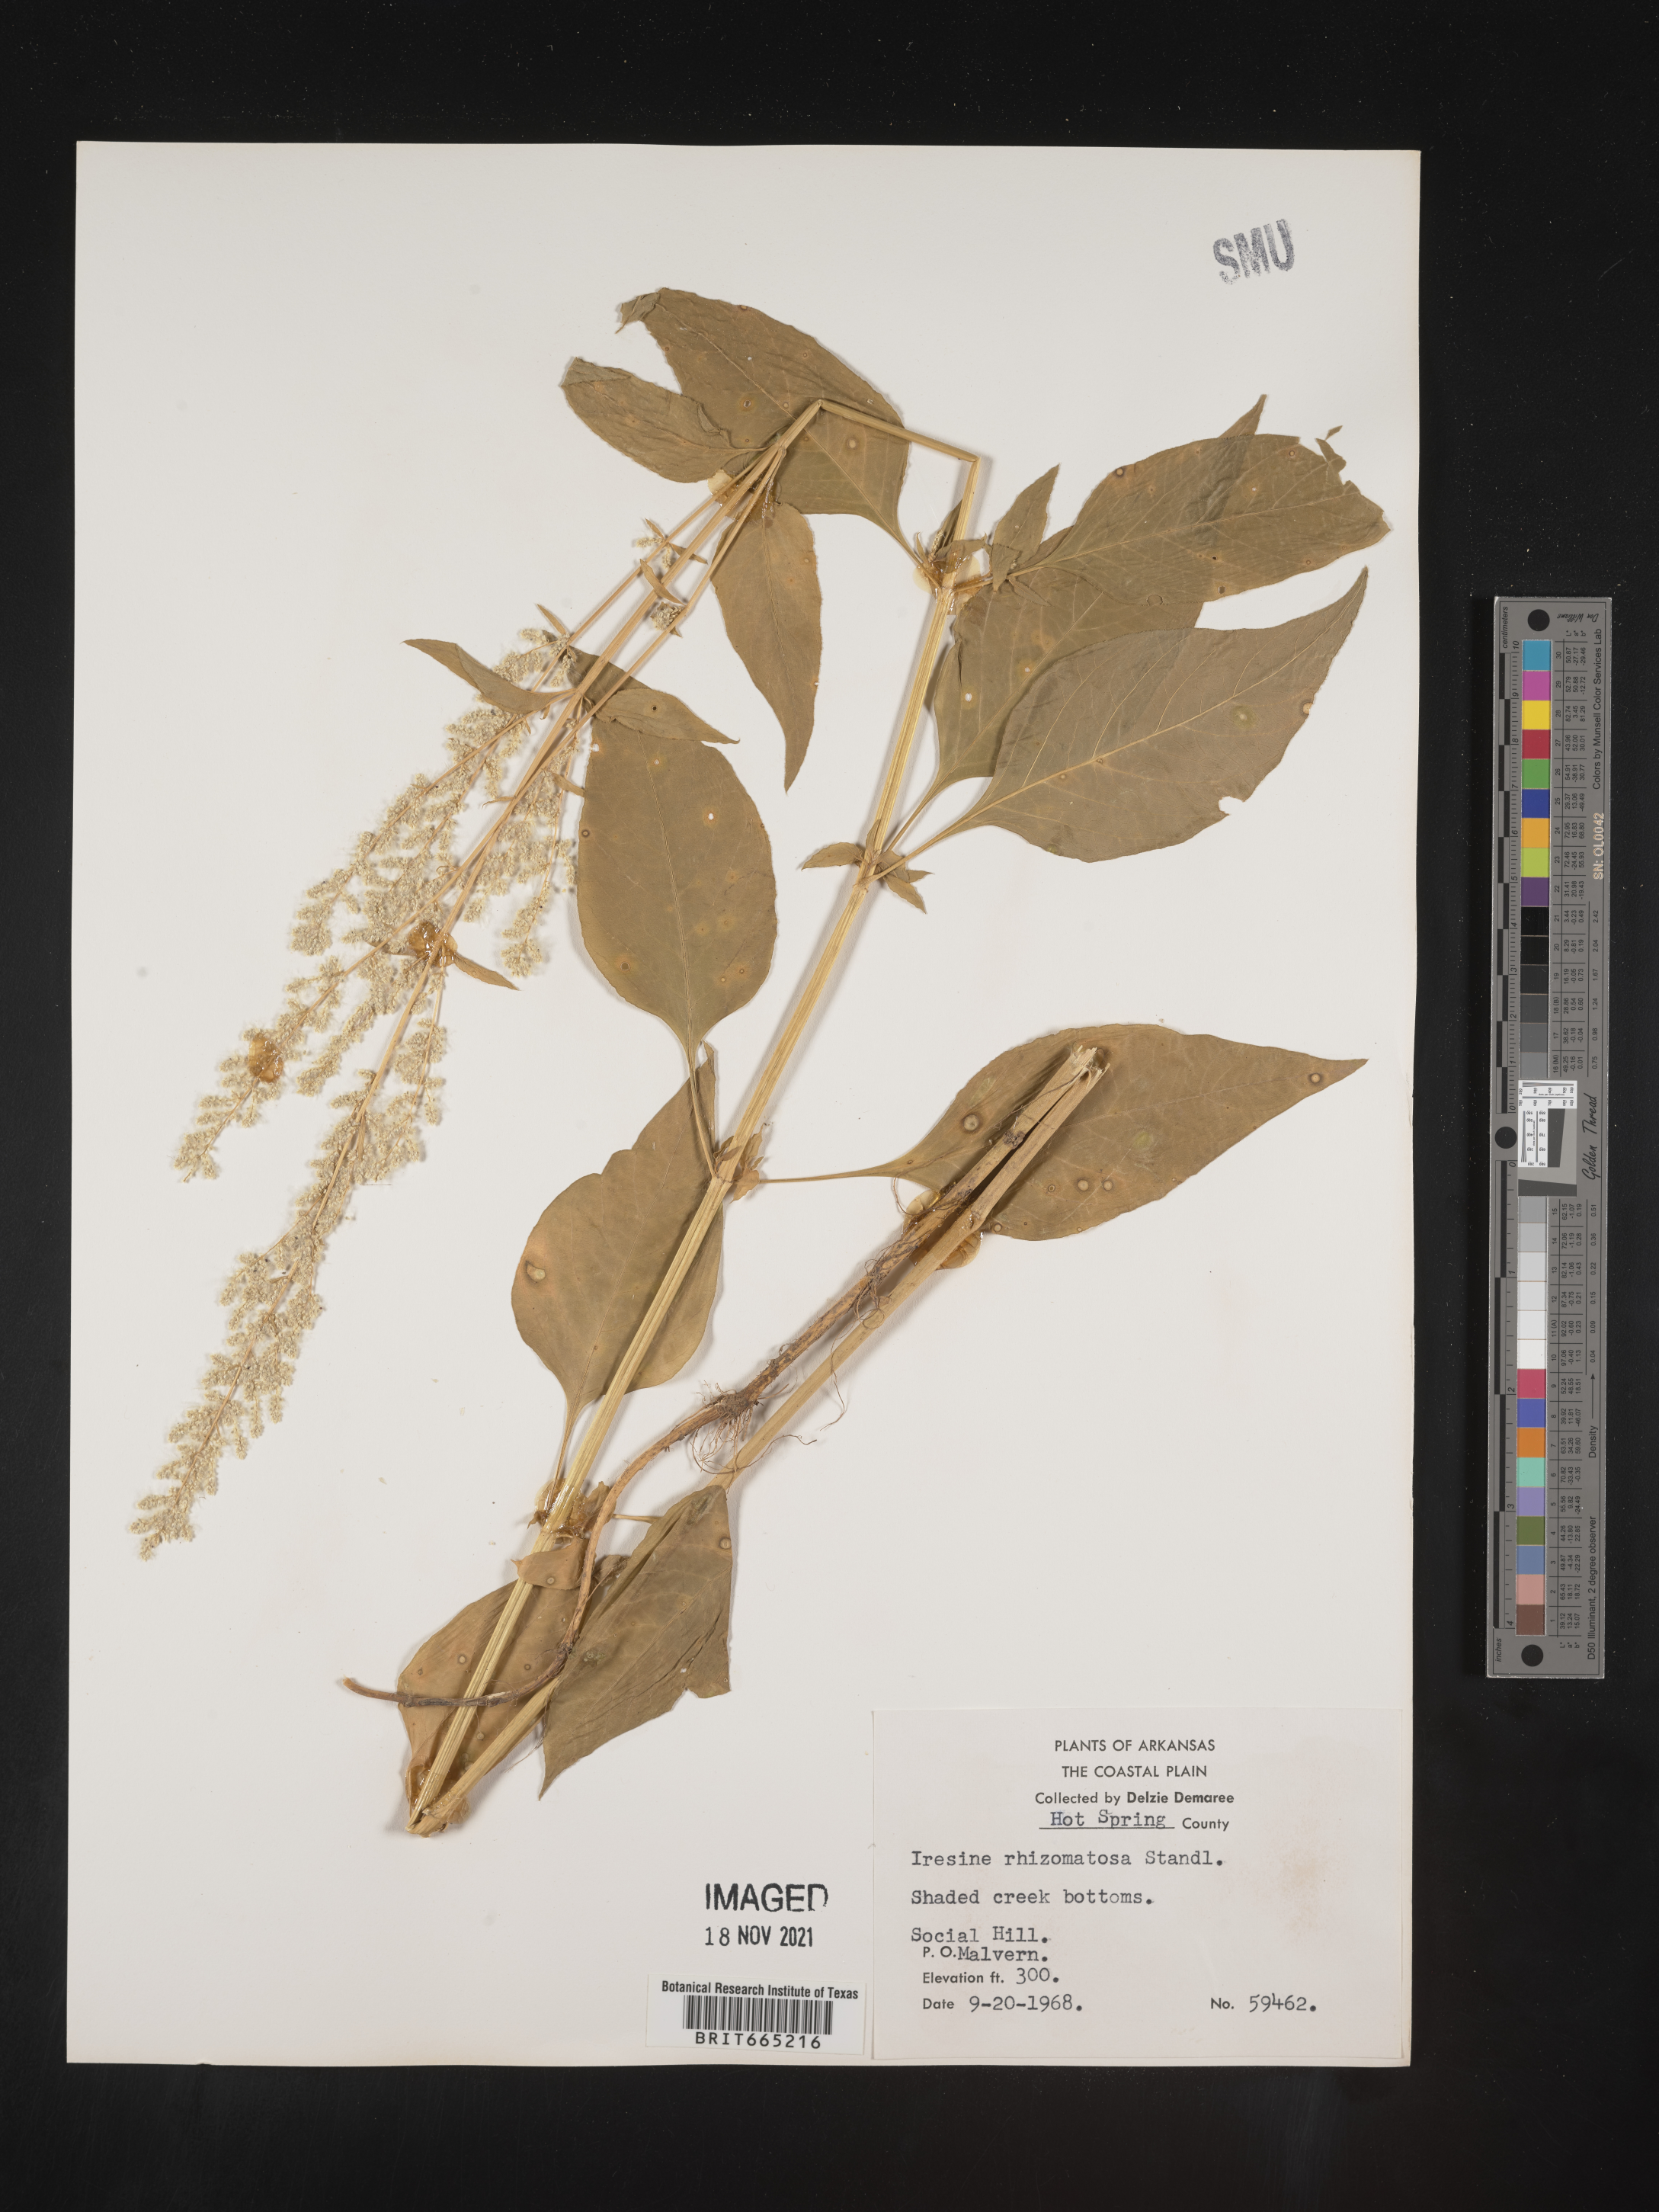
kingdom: Plantae
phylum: Tracheophyta
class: Magnoliopsida
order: Caryophyllales
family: Amaranthaceae
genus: Iresine
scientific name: Iresine rhizomatosa
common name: Juda's-bush
